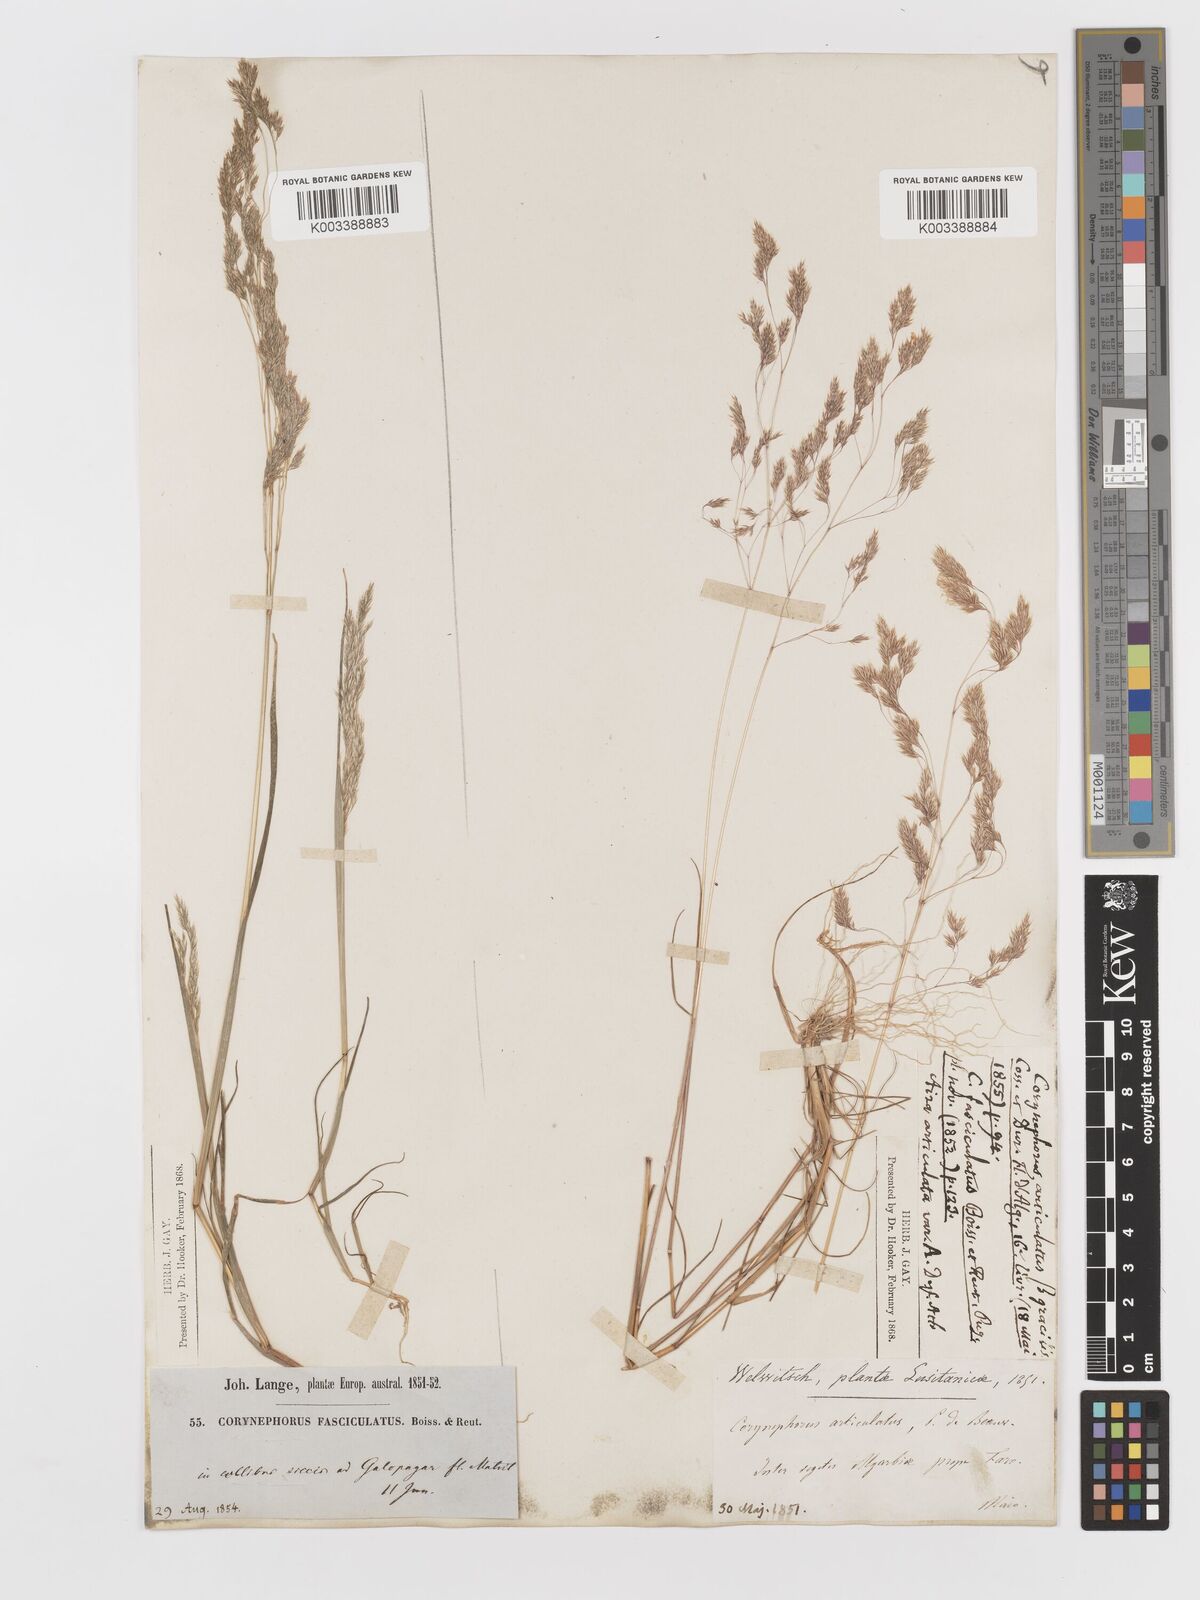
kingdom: Plantae
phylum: Tracheophyta
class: Liliopsida
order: Poales
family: Poaceae
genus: Corynephorus
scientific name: Corynephorus fasciculatus
